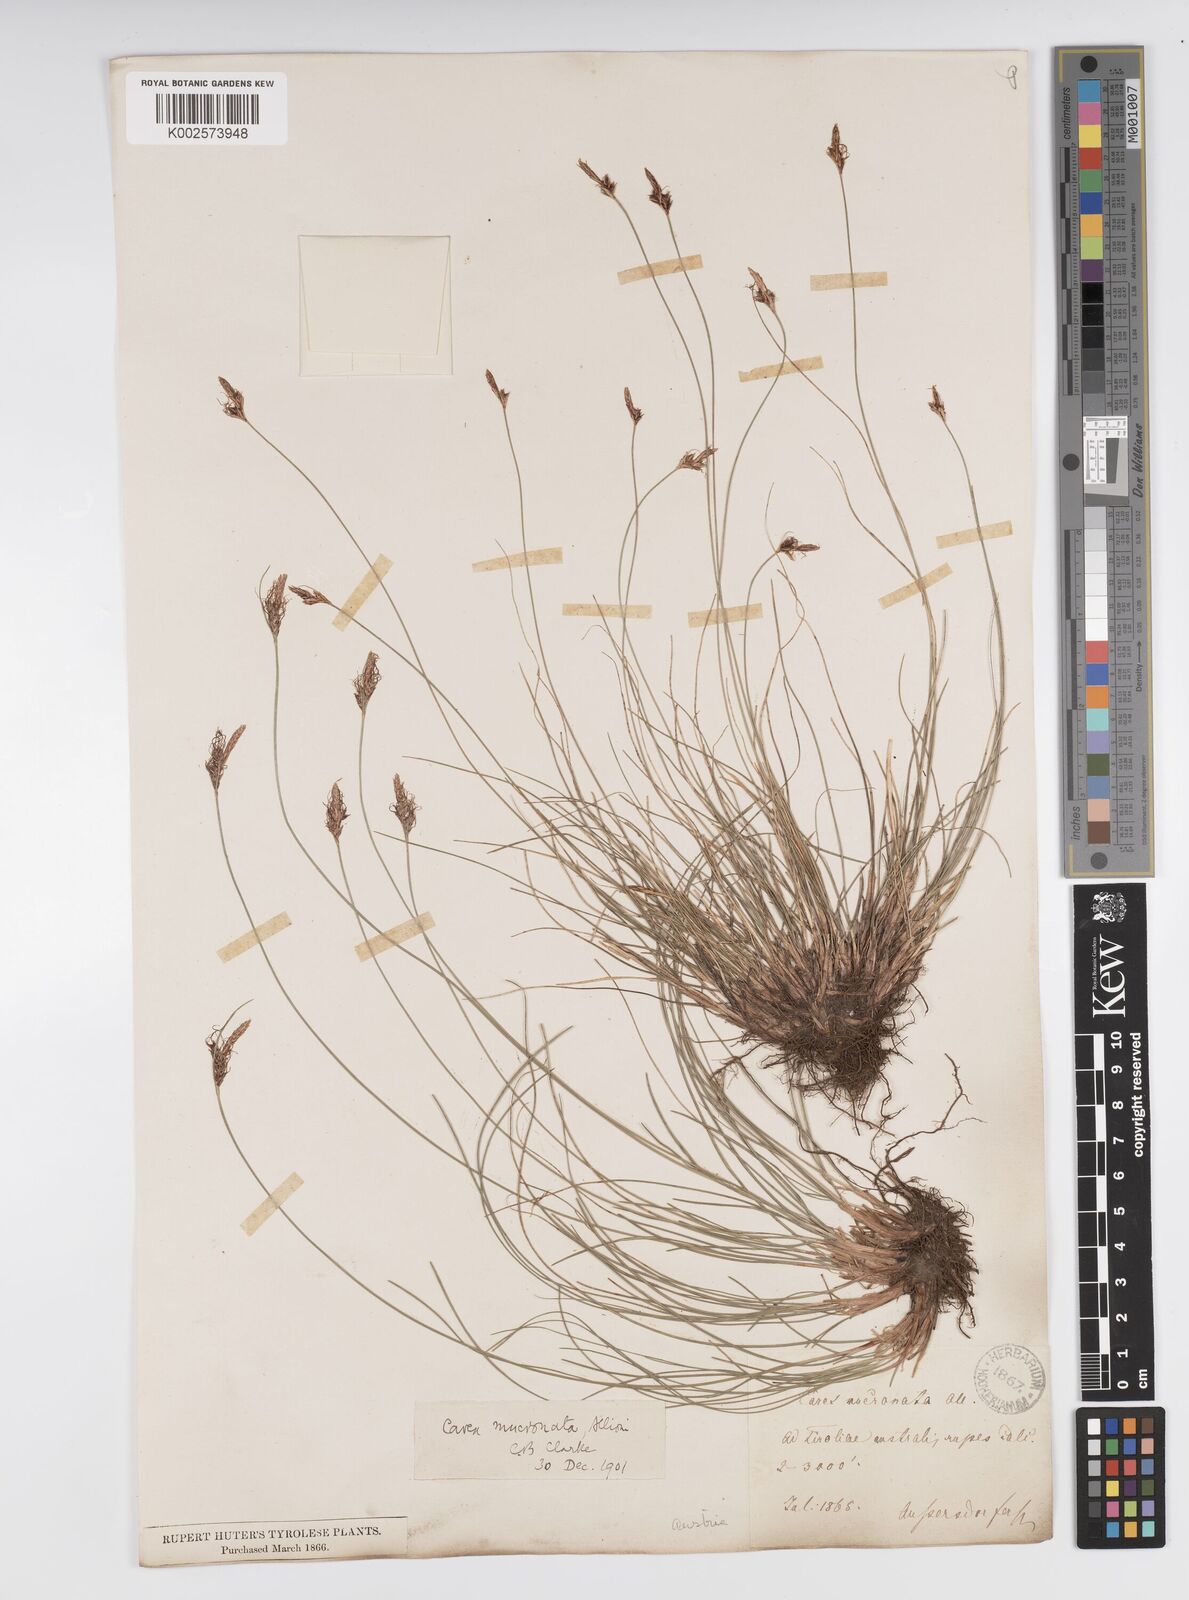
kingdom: Plantae
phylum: Tracheophyta
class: Liliopsida
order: Poales
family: Cyperaceae
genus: Carex
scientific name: Carex mucronata
